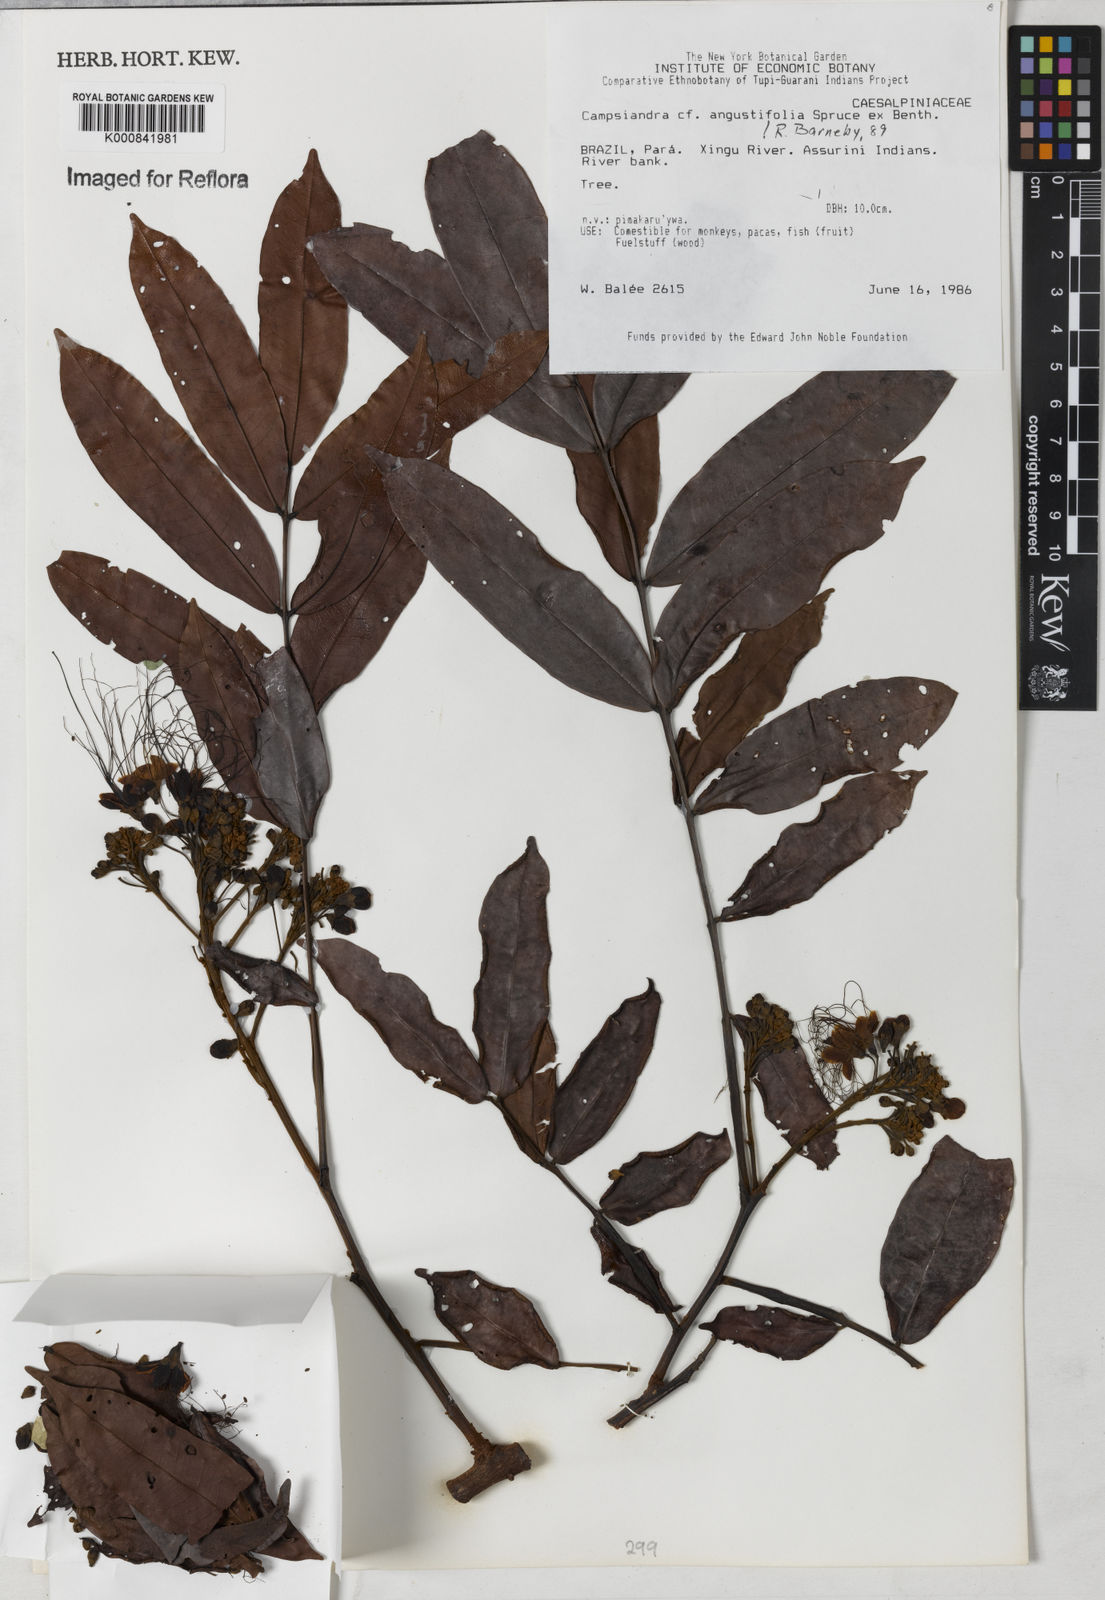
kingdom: Plantae
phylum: Tracheophyta
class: Magnoliopsida
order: Fabales
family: Fabaceae
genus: Campsiandra
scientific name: Campsiandra
